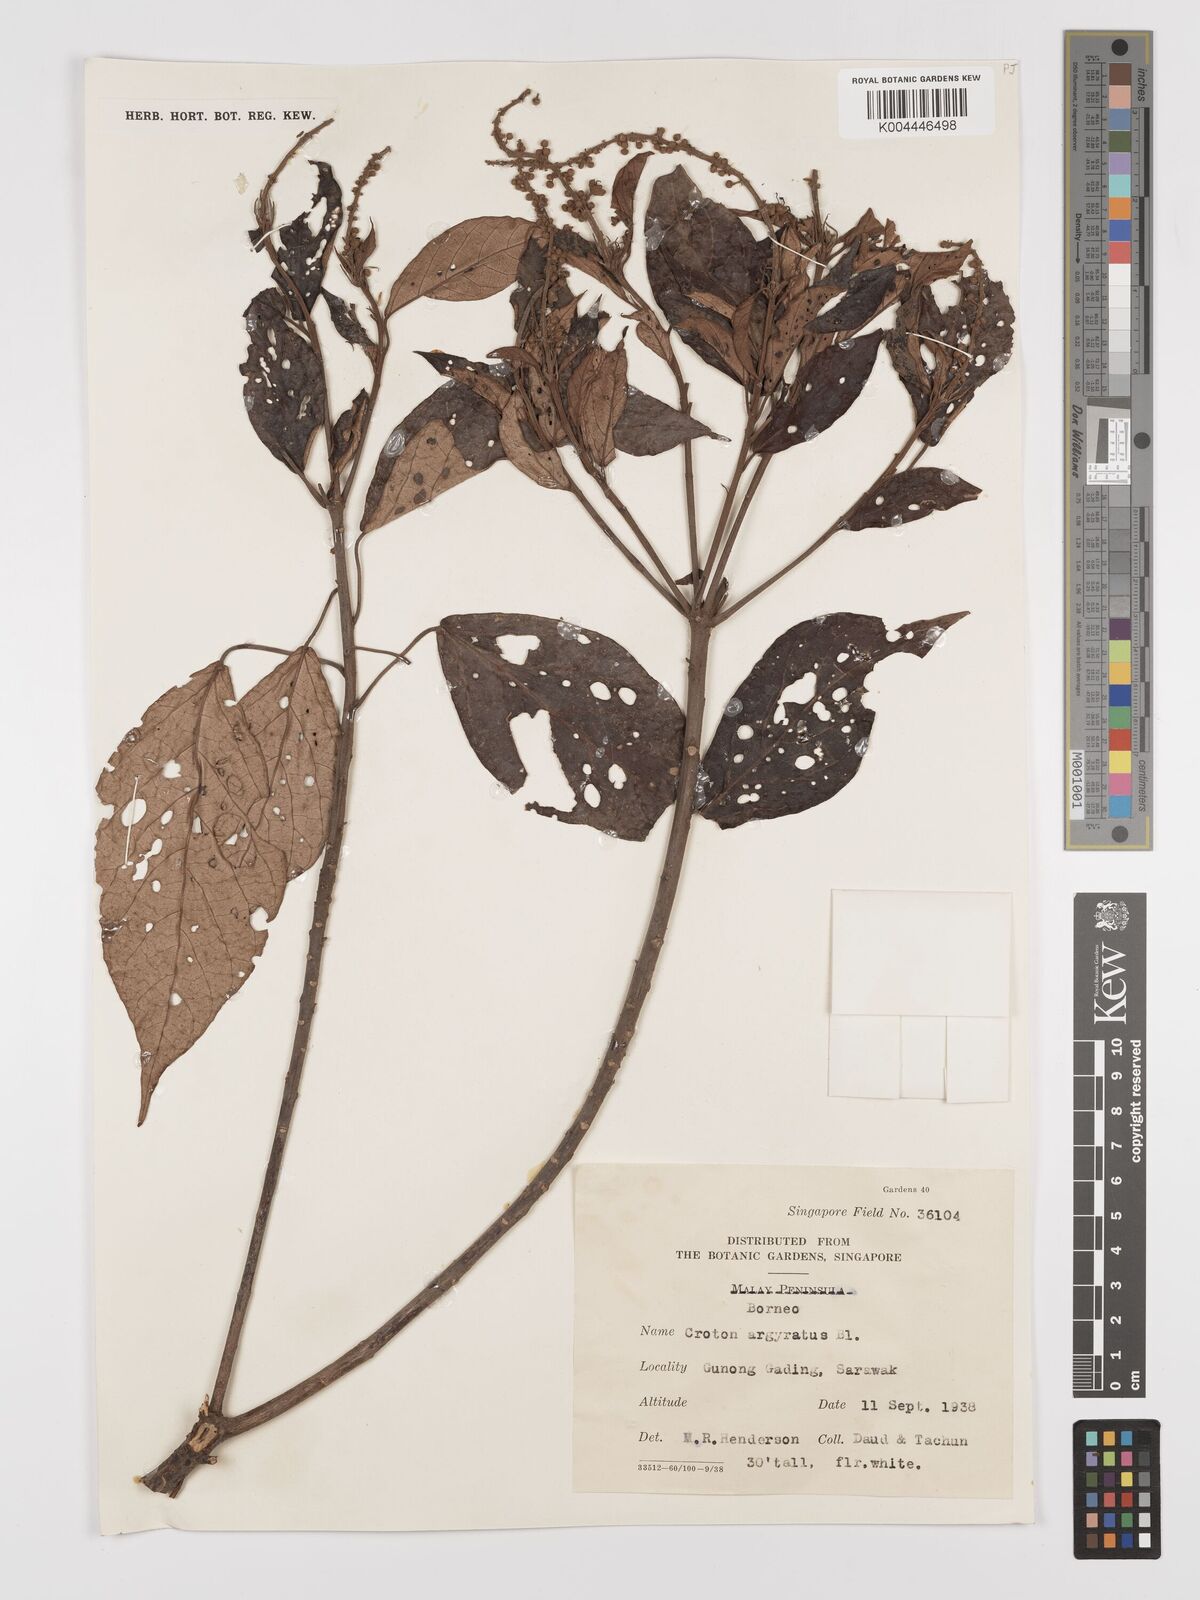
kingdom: Plantae
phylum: Tracheophyta
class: Magnoliopsida
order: Malpighiales
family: Euphorbiaceae
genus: Croton
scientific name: Croton argyratus
